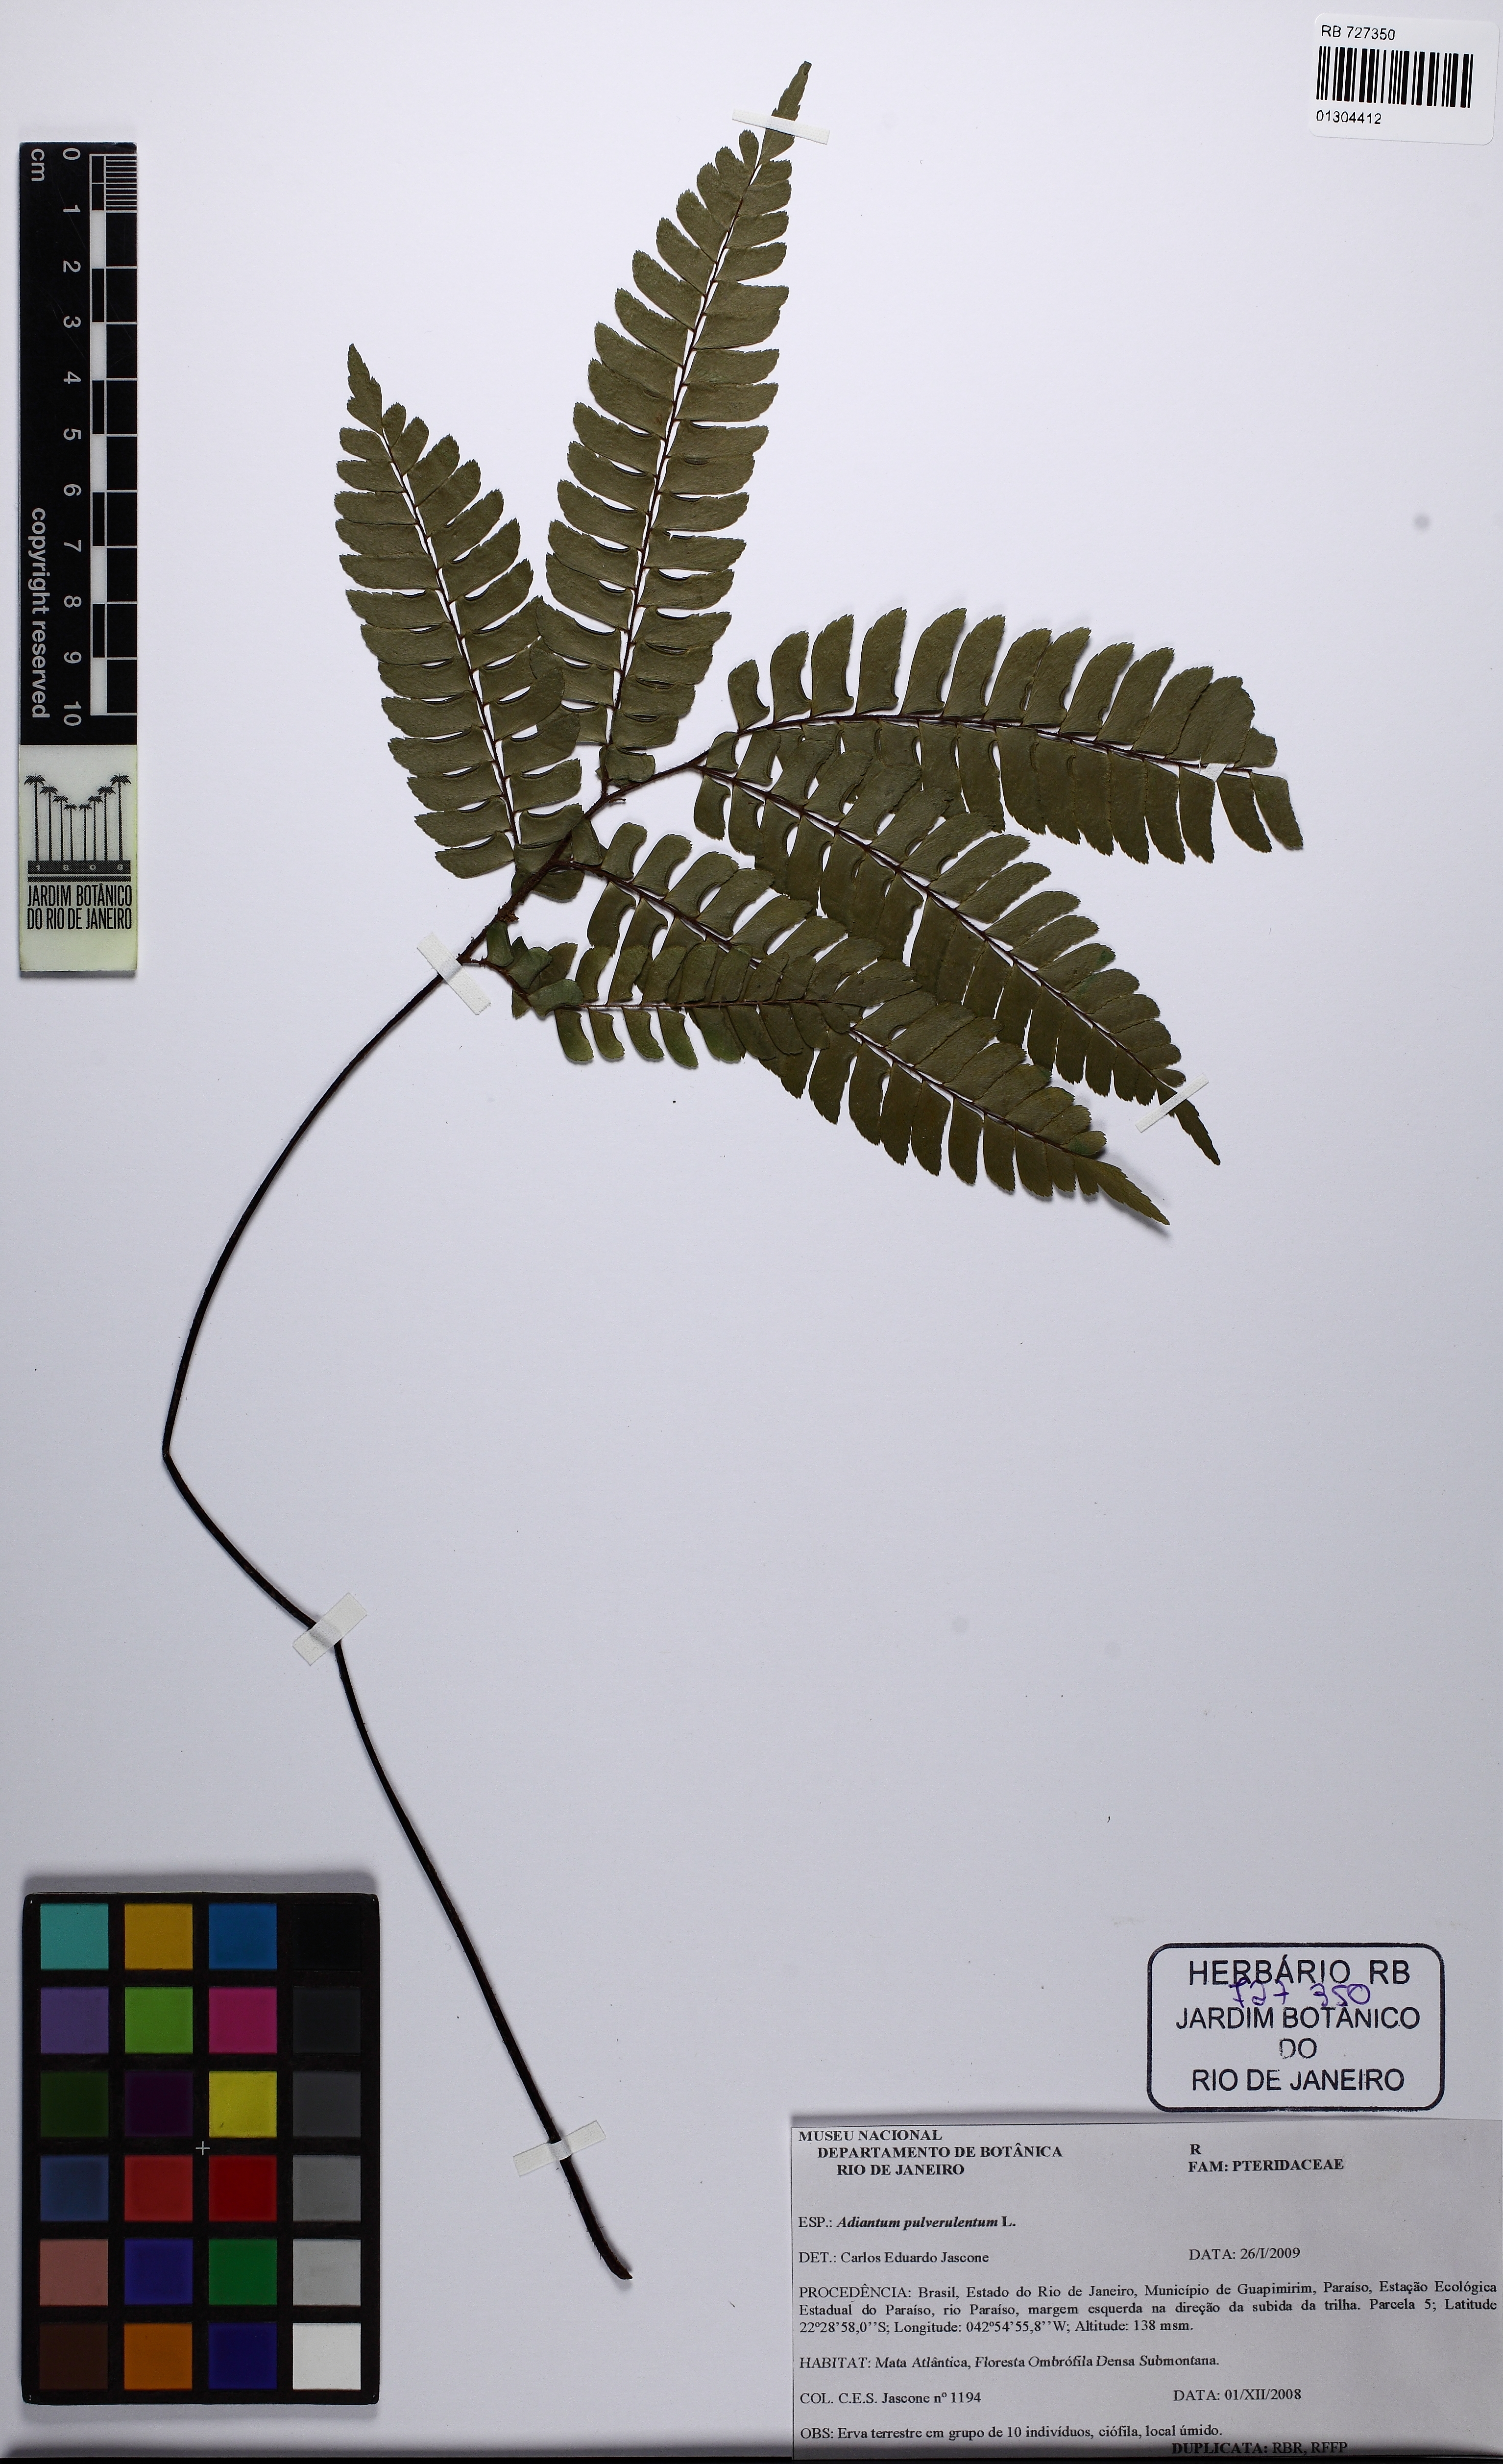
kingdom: Plantae
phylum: Tracheophyta
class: Polypodiopsida
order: Polypodiales
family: Pteridaceae
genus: Adiantum
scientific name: Adiantum pulverulentum
